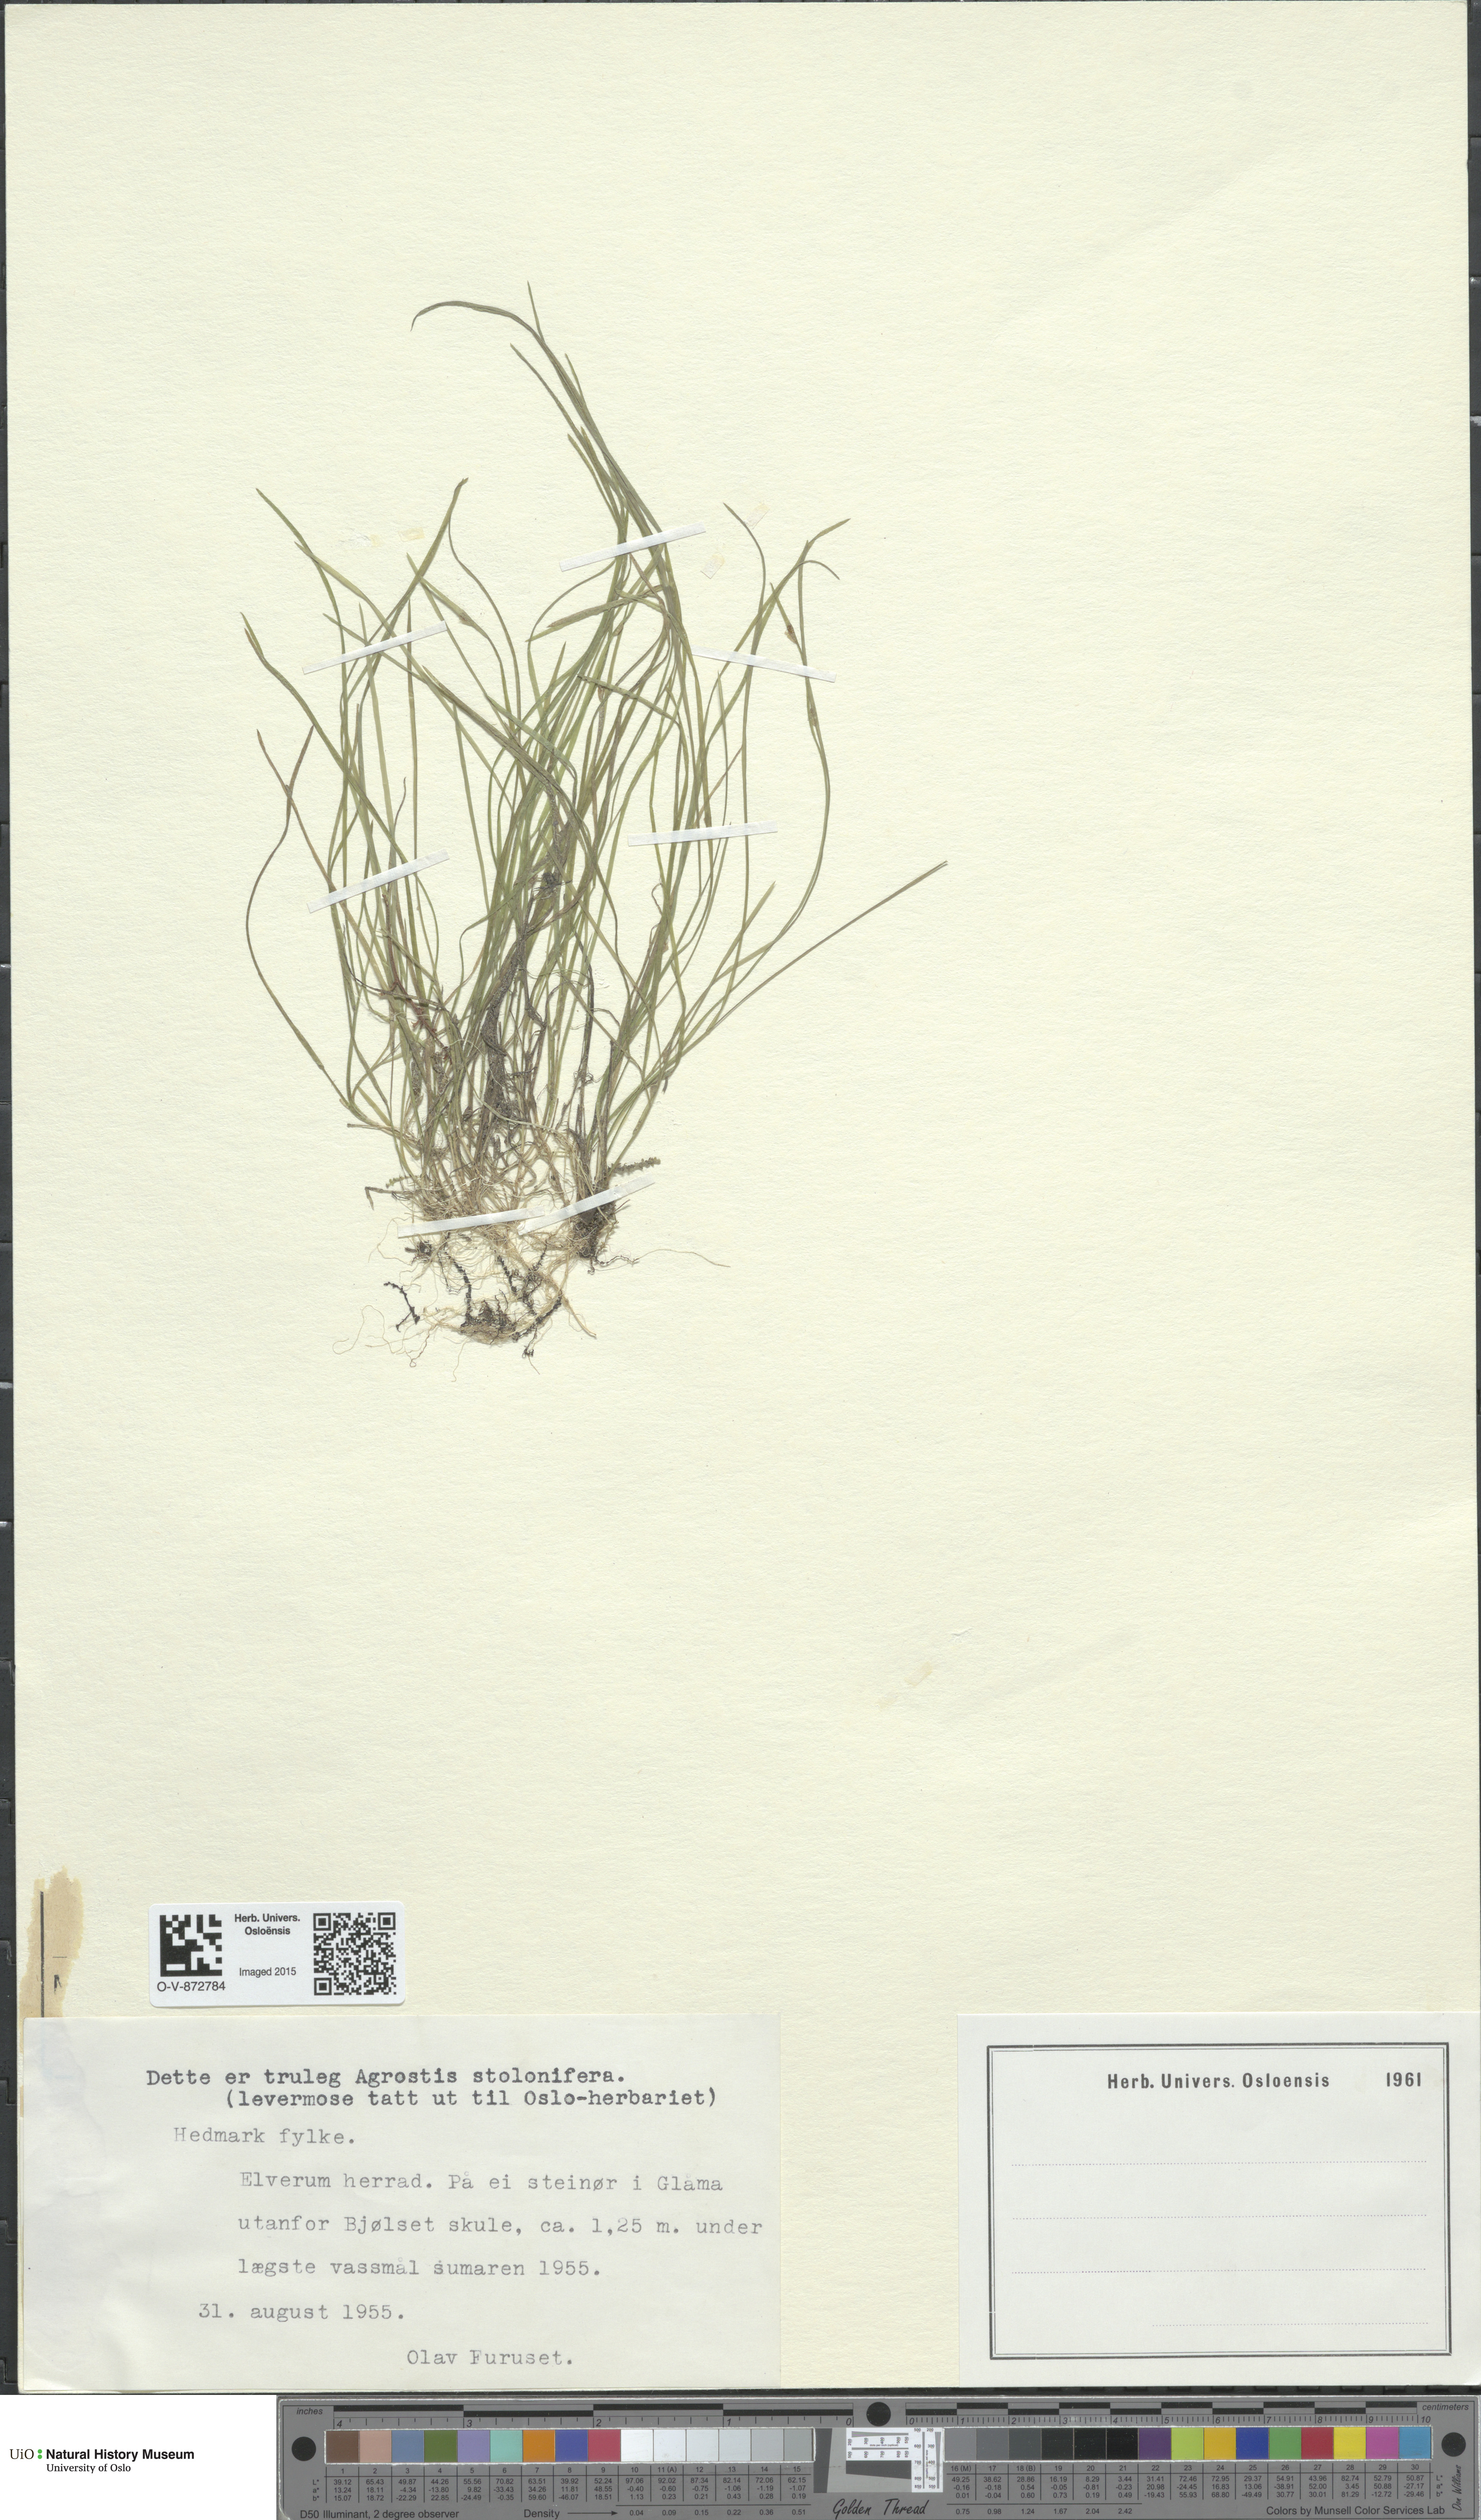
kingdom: Plantae
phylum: Tracheophyta
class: Liliopsida
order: Poales
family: Poaceae
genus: Agrostis
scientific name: Agrostis stolonifera
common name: Creeping bentgrass
